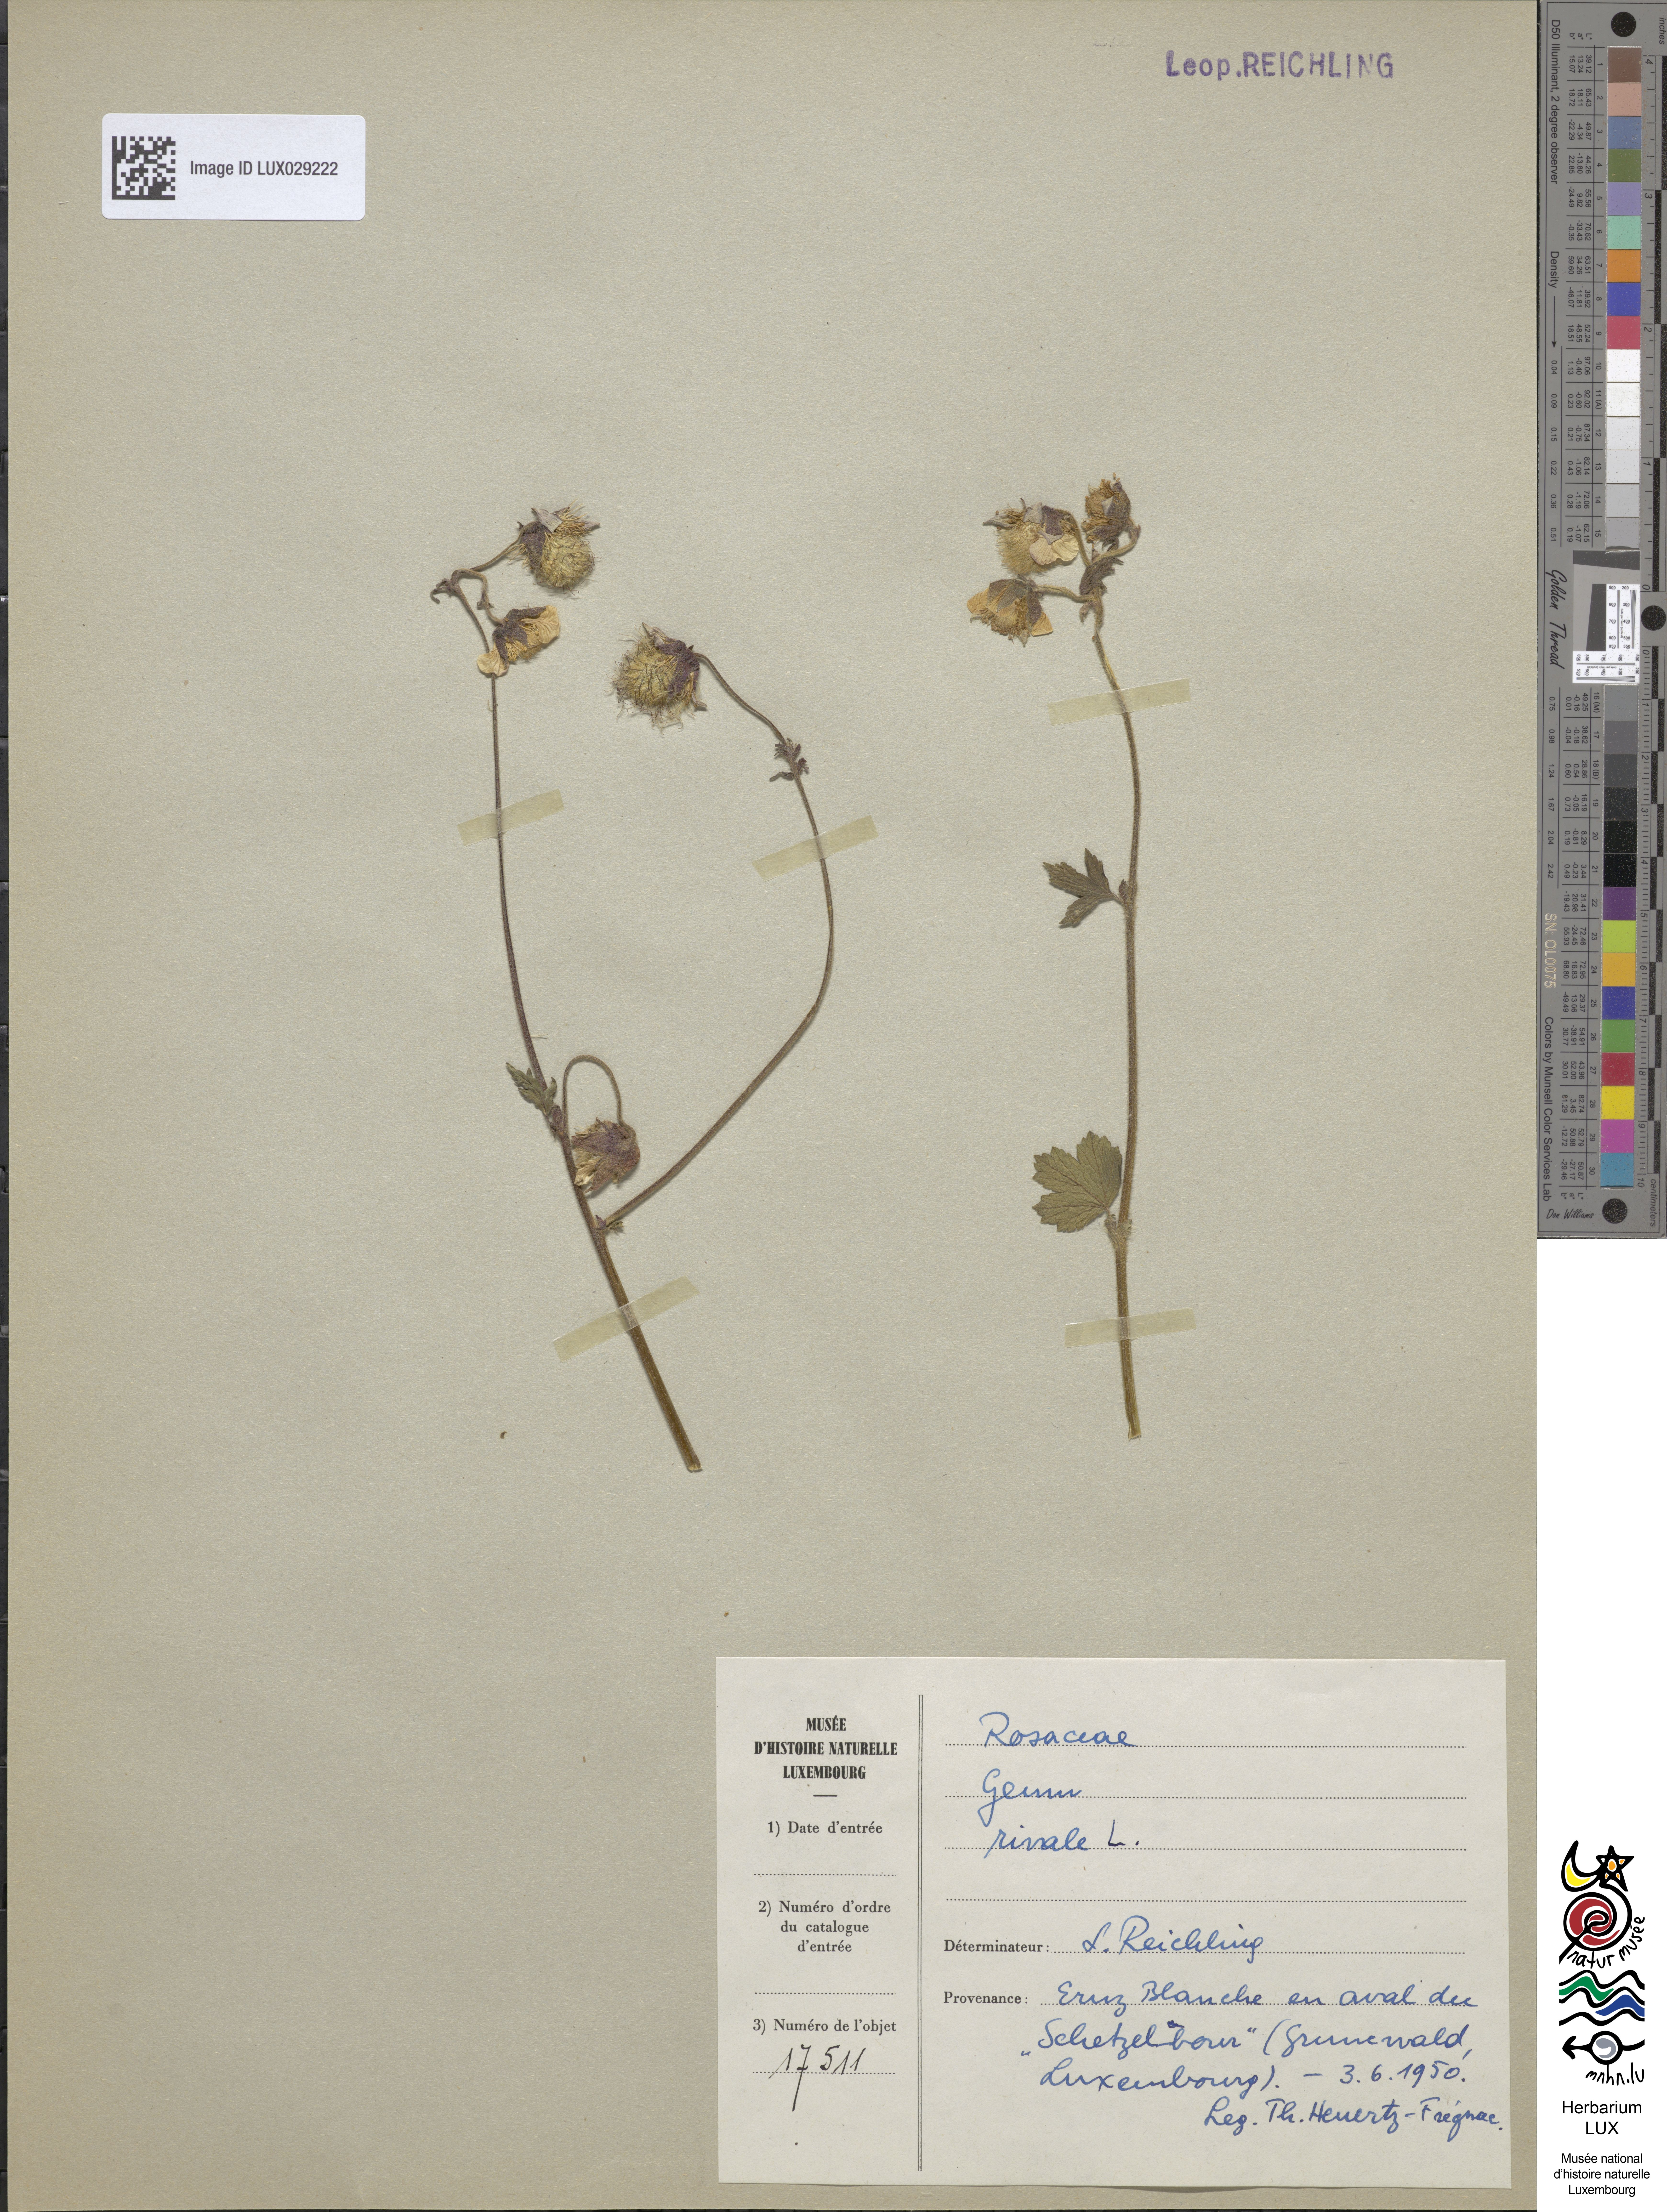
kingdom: Plantae
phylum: Tracheophyta
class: Magnoliopsida
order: Rosales
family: Rosaceae
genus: Geum
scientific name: Geum rivale
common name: Water avens
